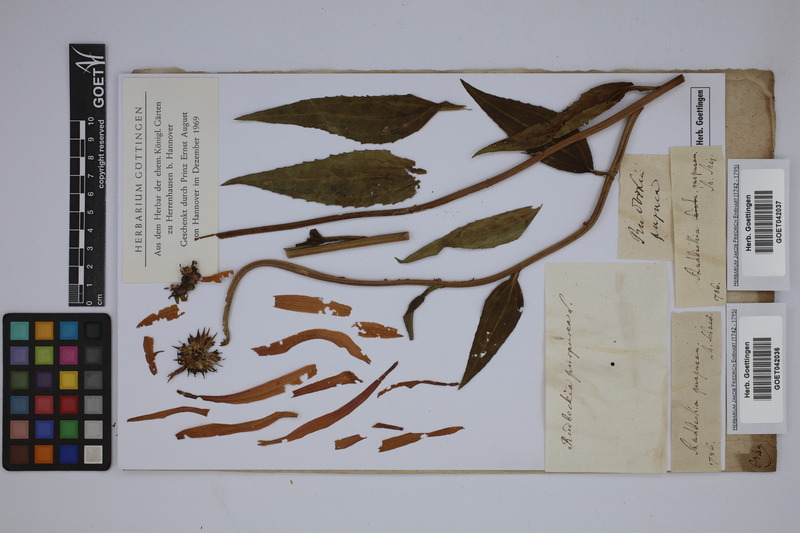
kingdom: Plantae
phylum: Tracheophyta
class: Magnoliopsida
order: Asterales
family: Asteraceae
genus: Echinacea
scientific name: Echinacea purpurea
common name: Broad-leaved purple coneflower
